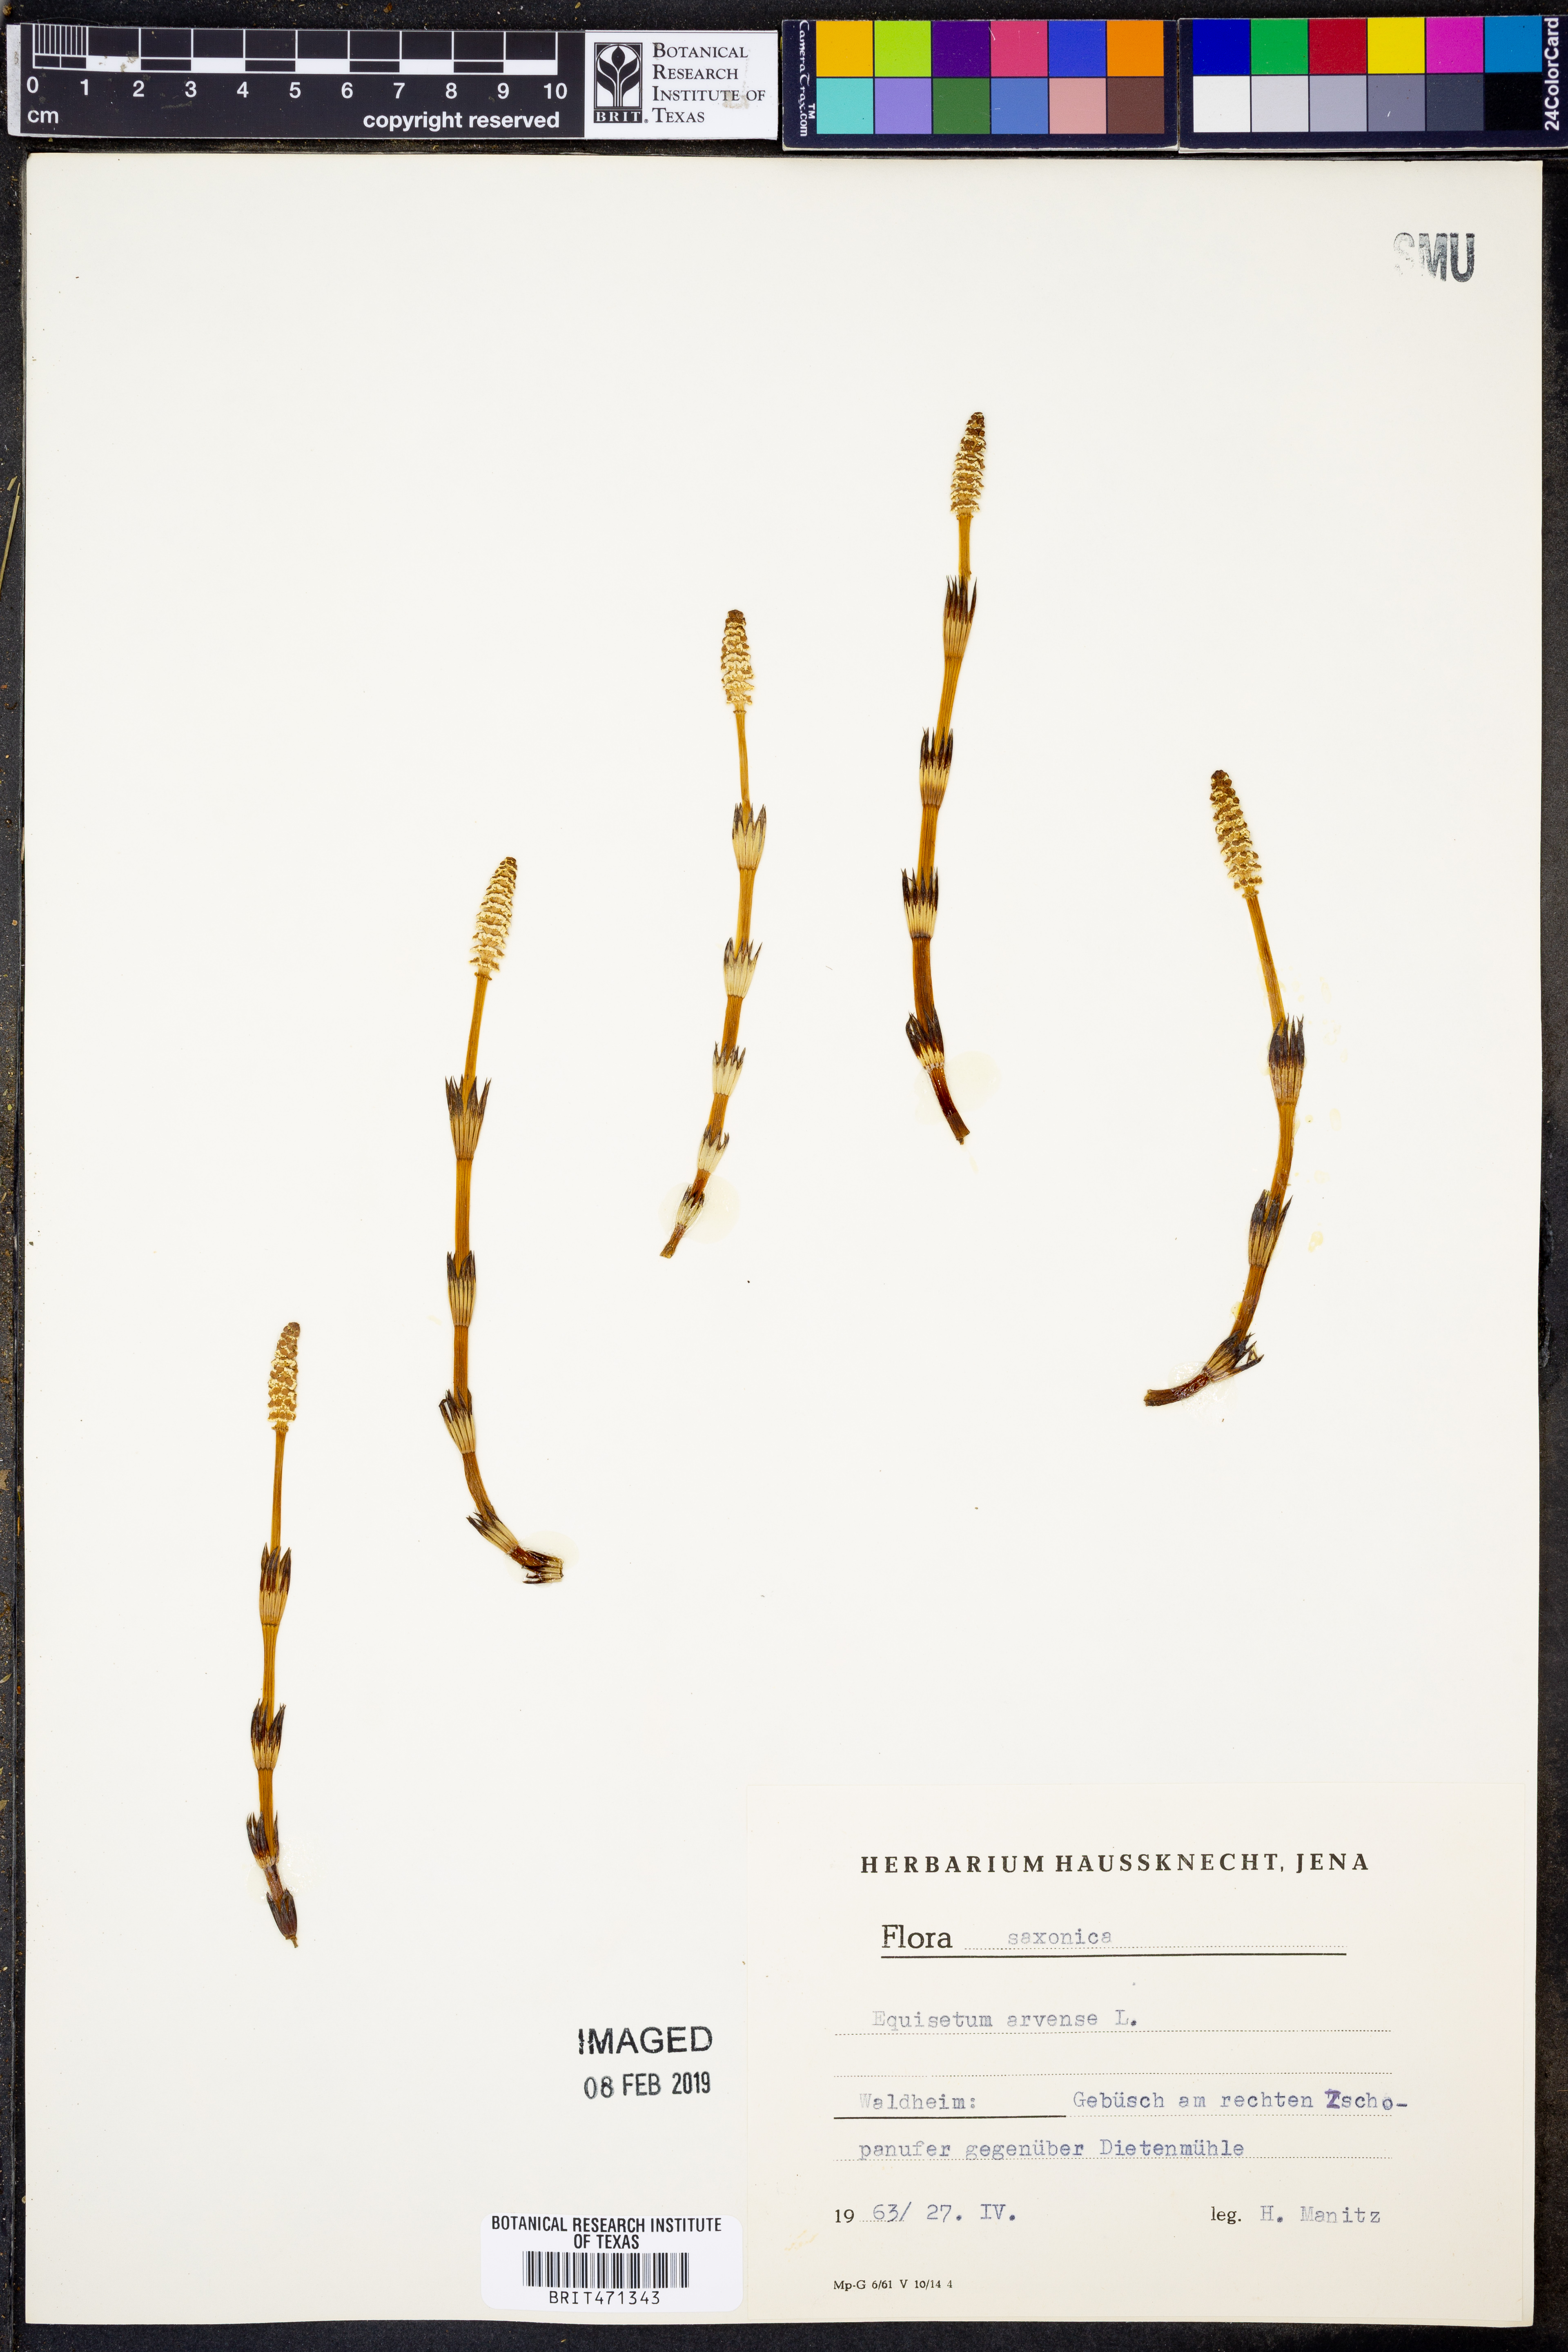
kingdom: Plantae
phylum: Tracheophyta
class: Polypodiopsida
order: Equisetales
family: Equisetaceae
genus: Equisetum
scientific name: Equisetum arvense
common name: Field horsetail
